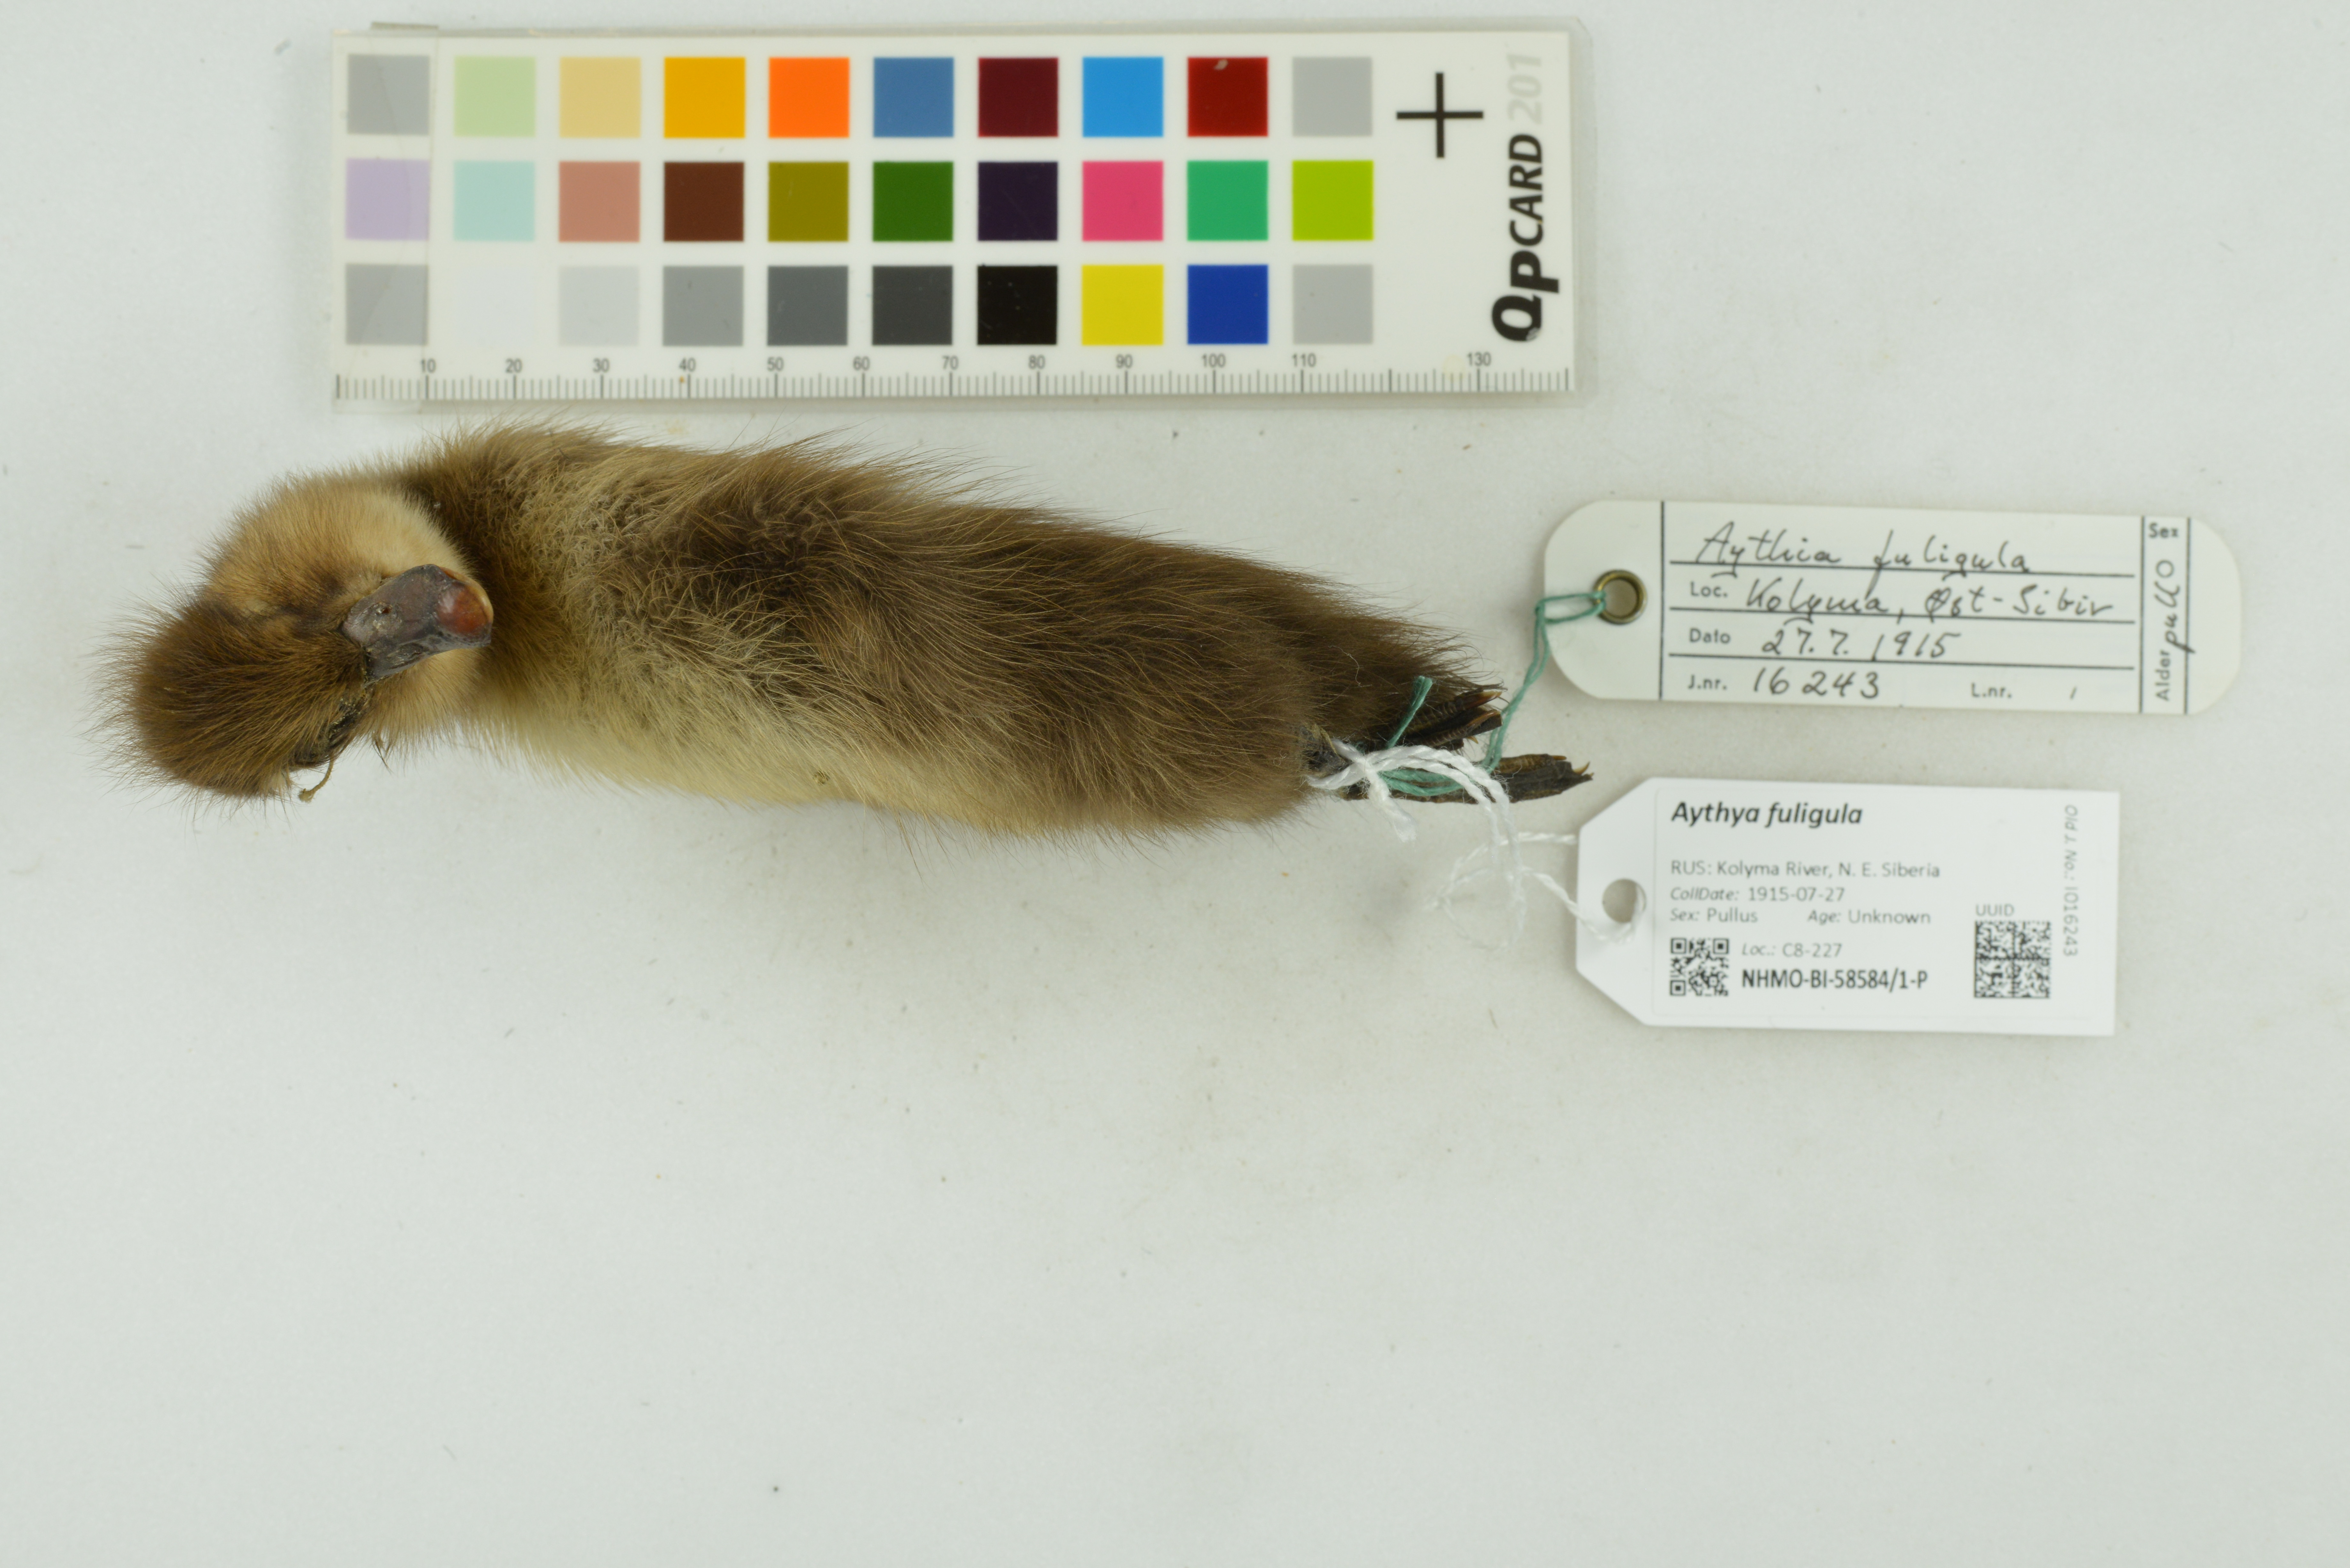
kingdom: Animalia
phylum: Chordata
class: Aves
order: Anseriformes
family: Anatidae
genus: Aythya
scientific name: Aythya fuligula
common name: Tufted duck
